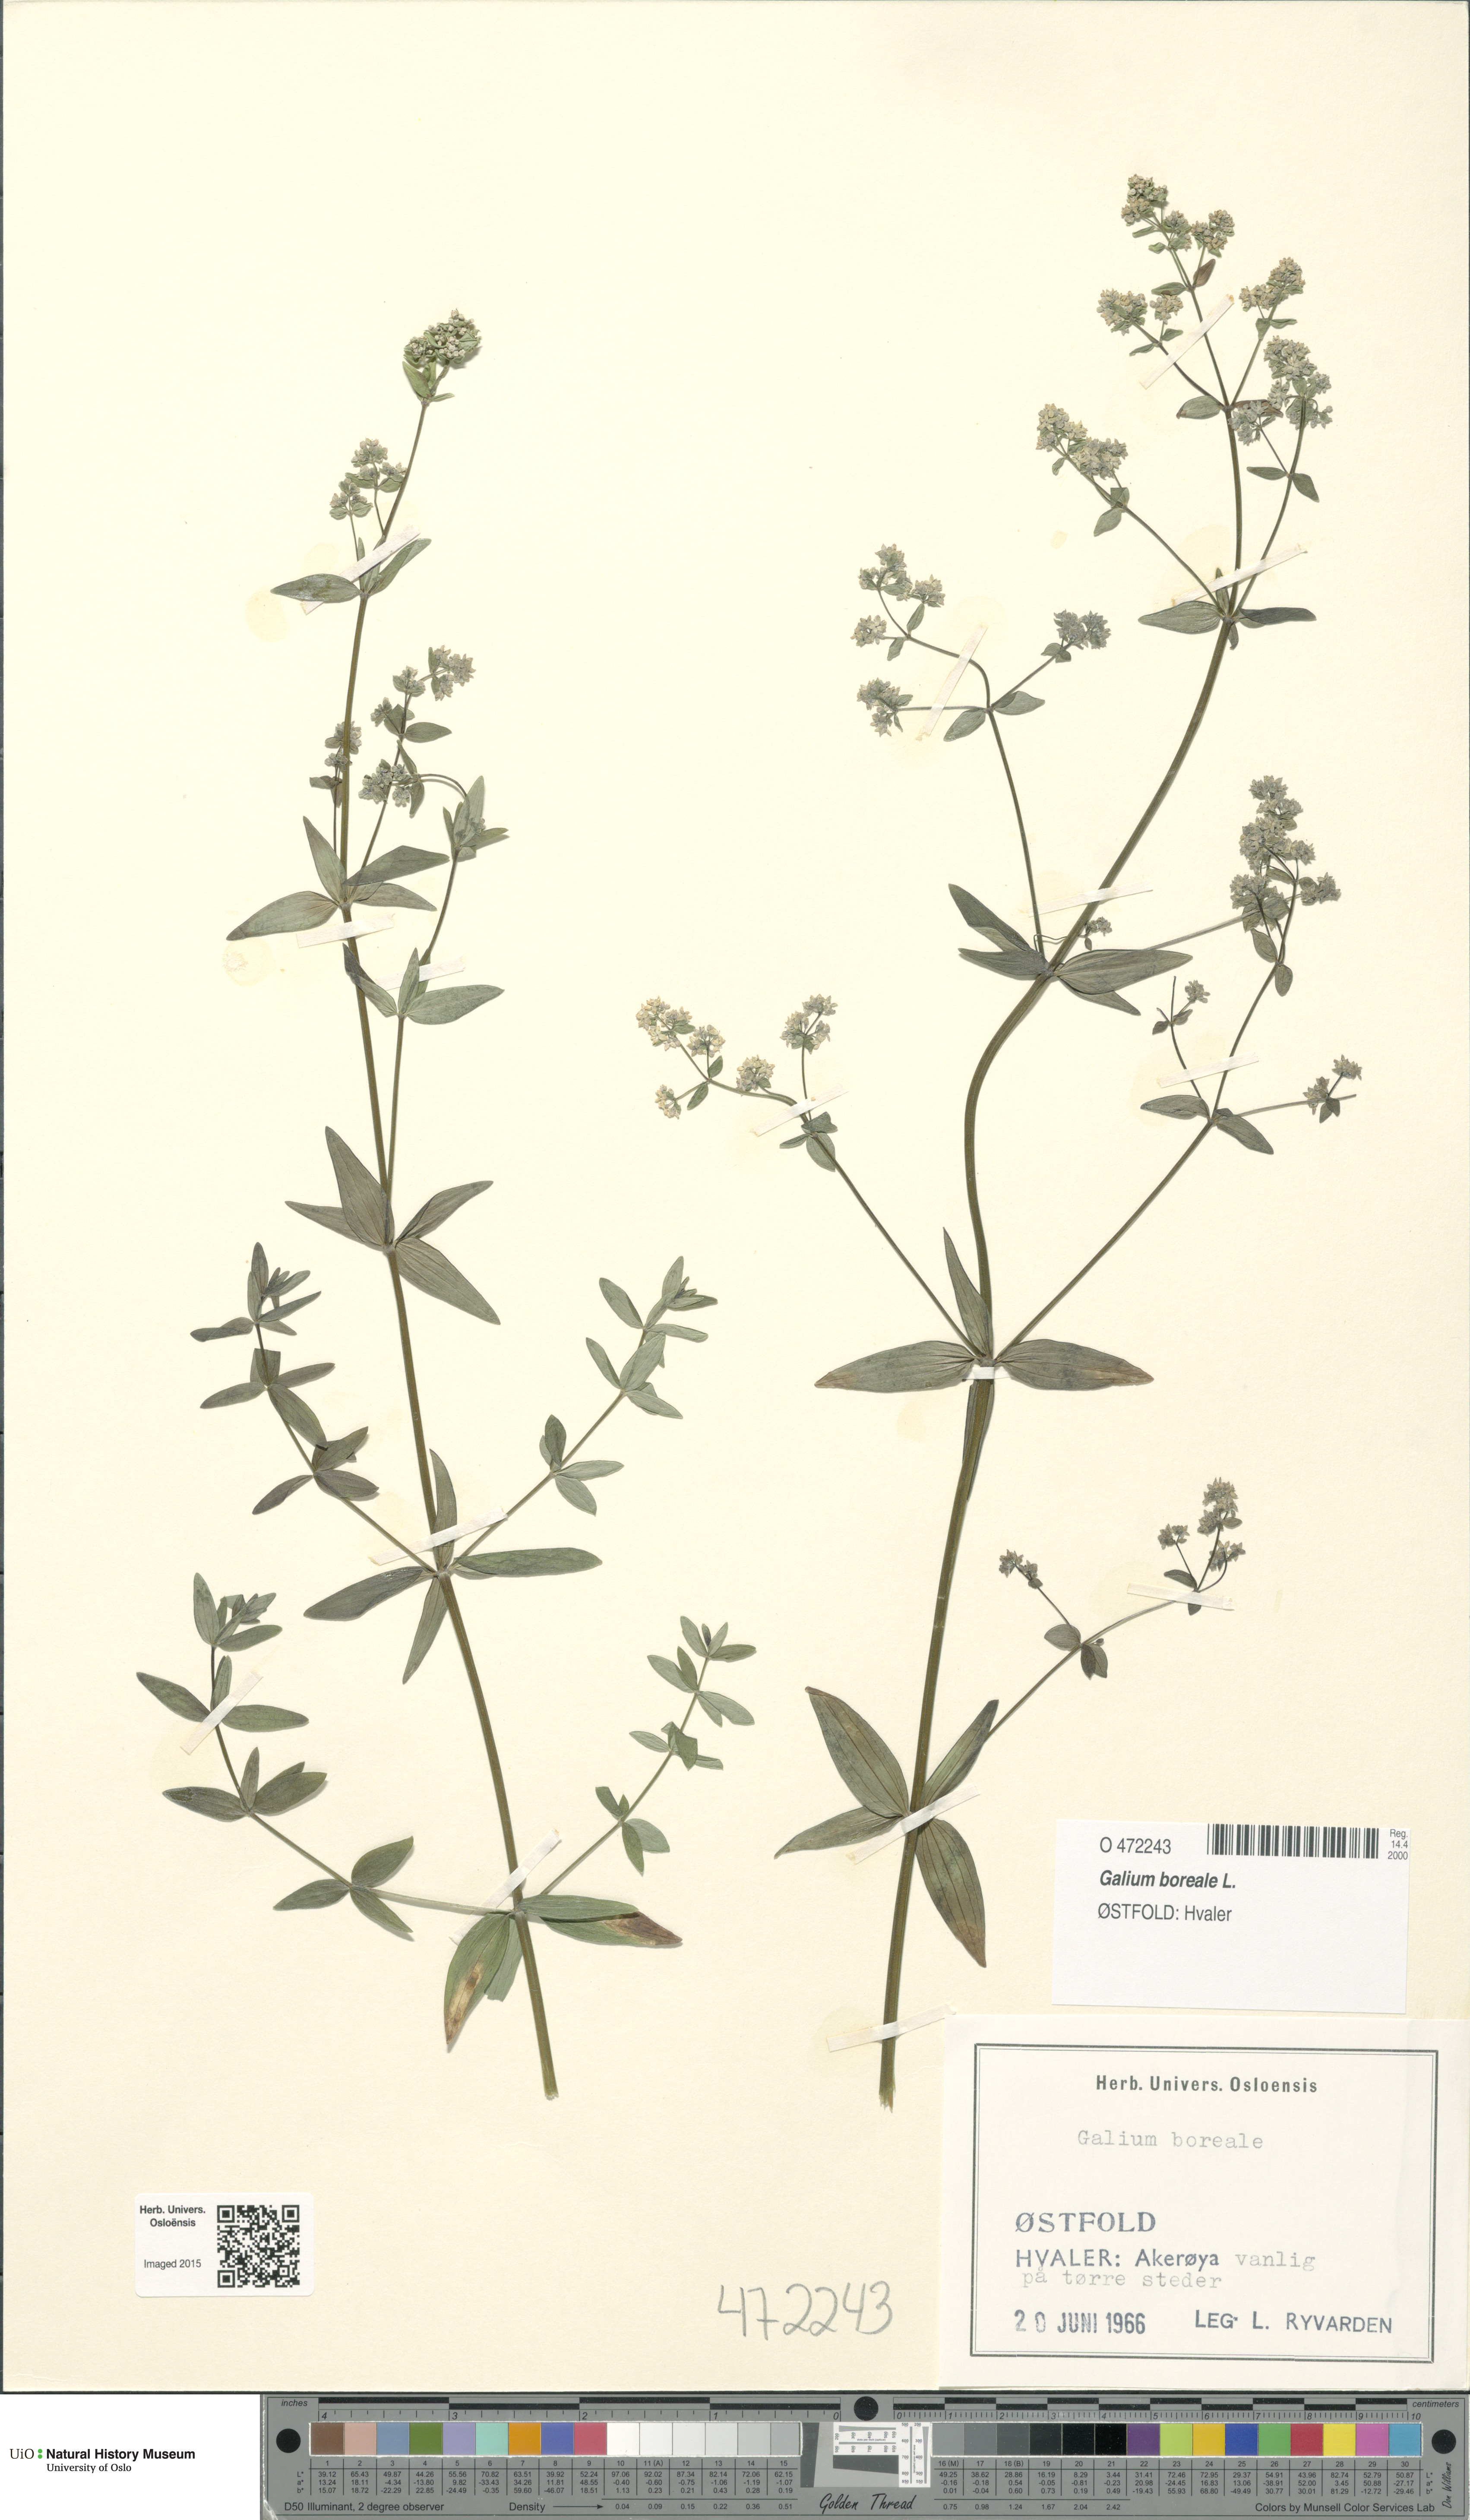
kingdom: Plantae
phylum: Tracheophyta
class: Magnoliopsida
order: Gentianales
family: Rubiaceae
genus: Galium
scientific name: Galium boreale
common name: Northern bedstraw
